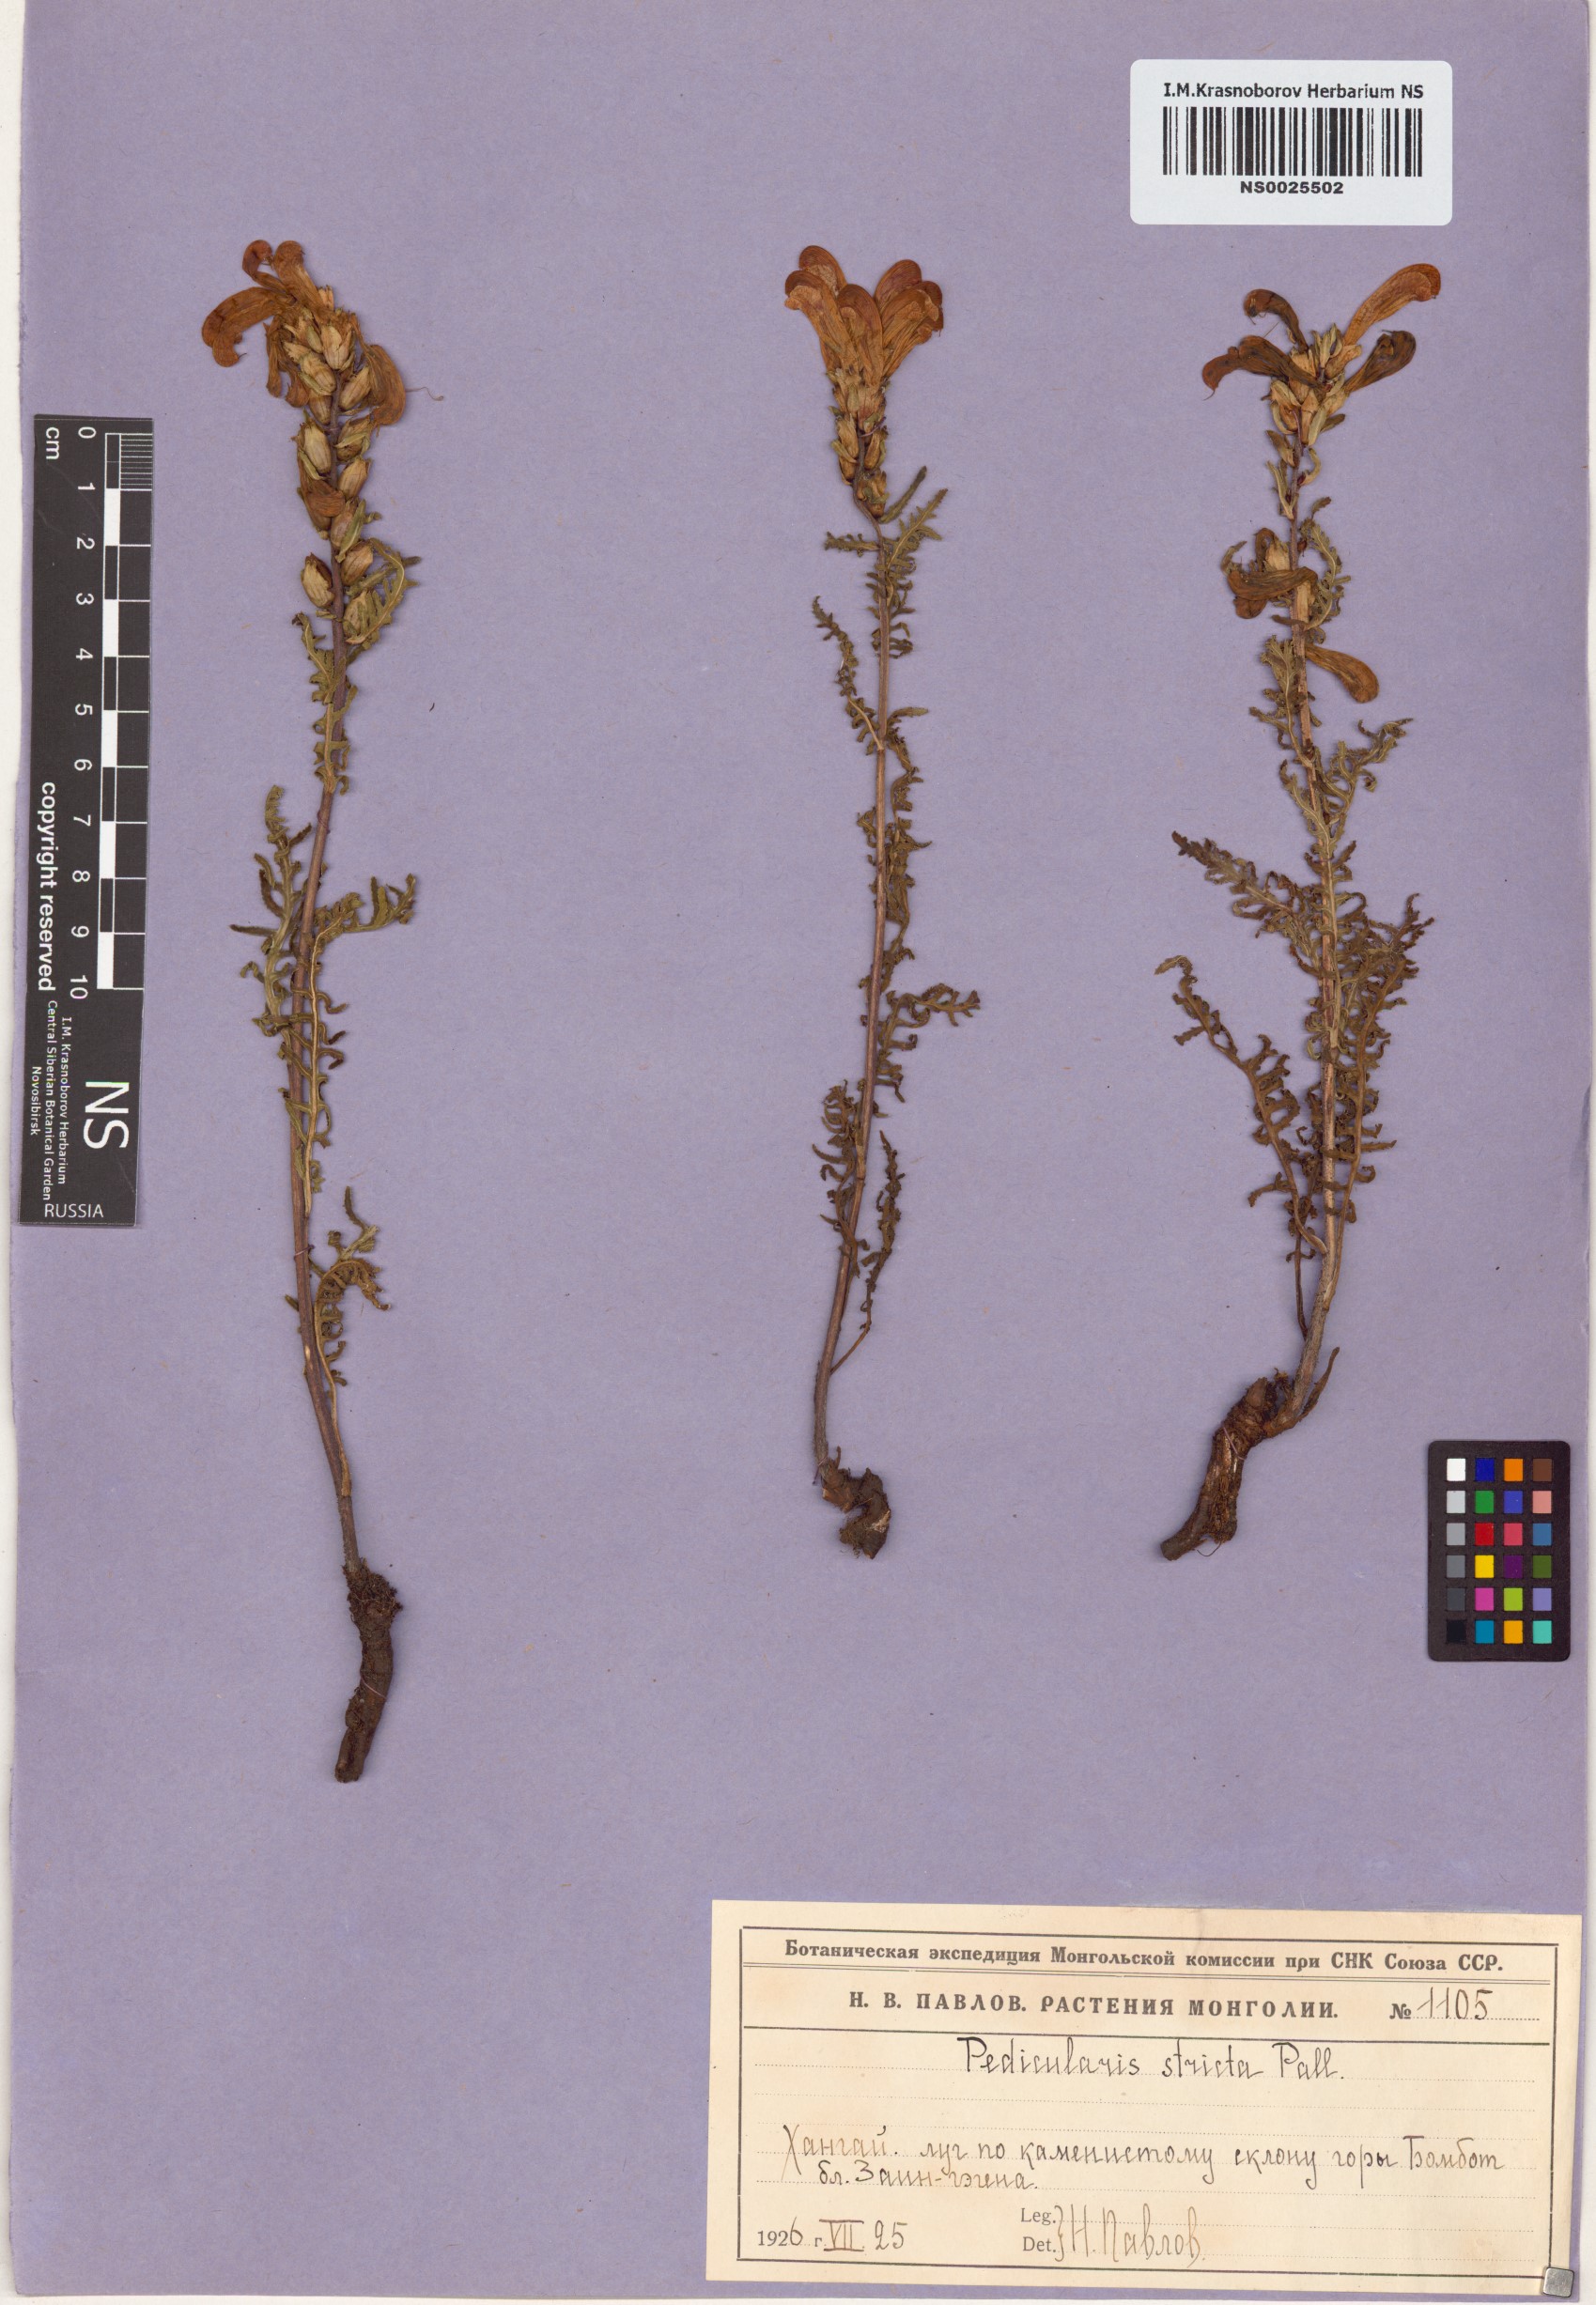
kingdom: Plantae
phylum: Tracheophyta
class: Magnoliopsida
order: Lamiales
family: Orobanchaceae
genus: Pedicularis
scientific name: Pedicularis striata
